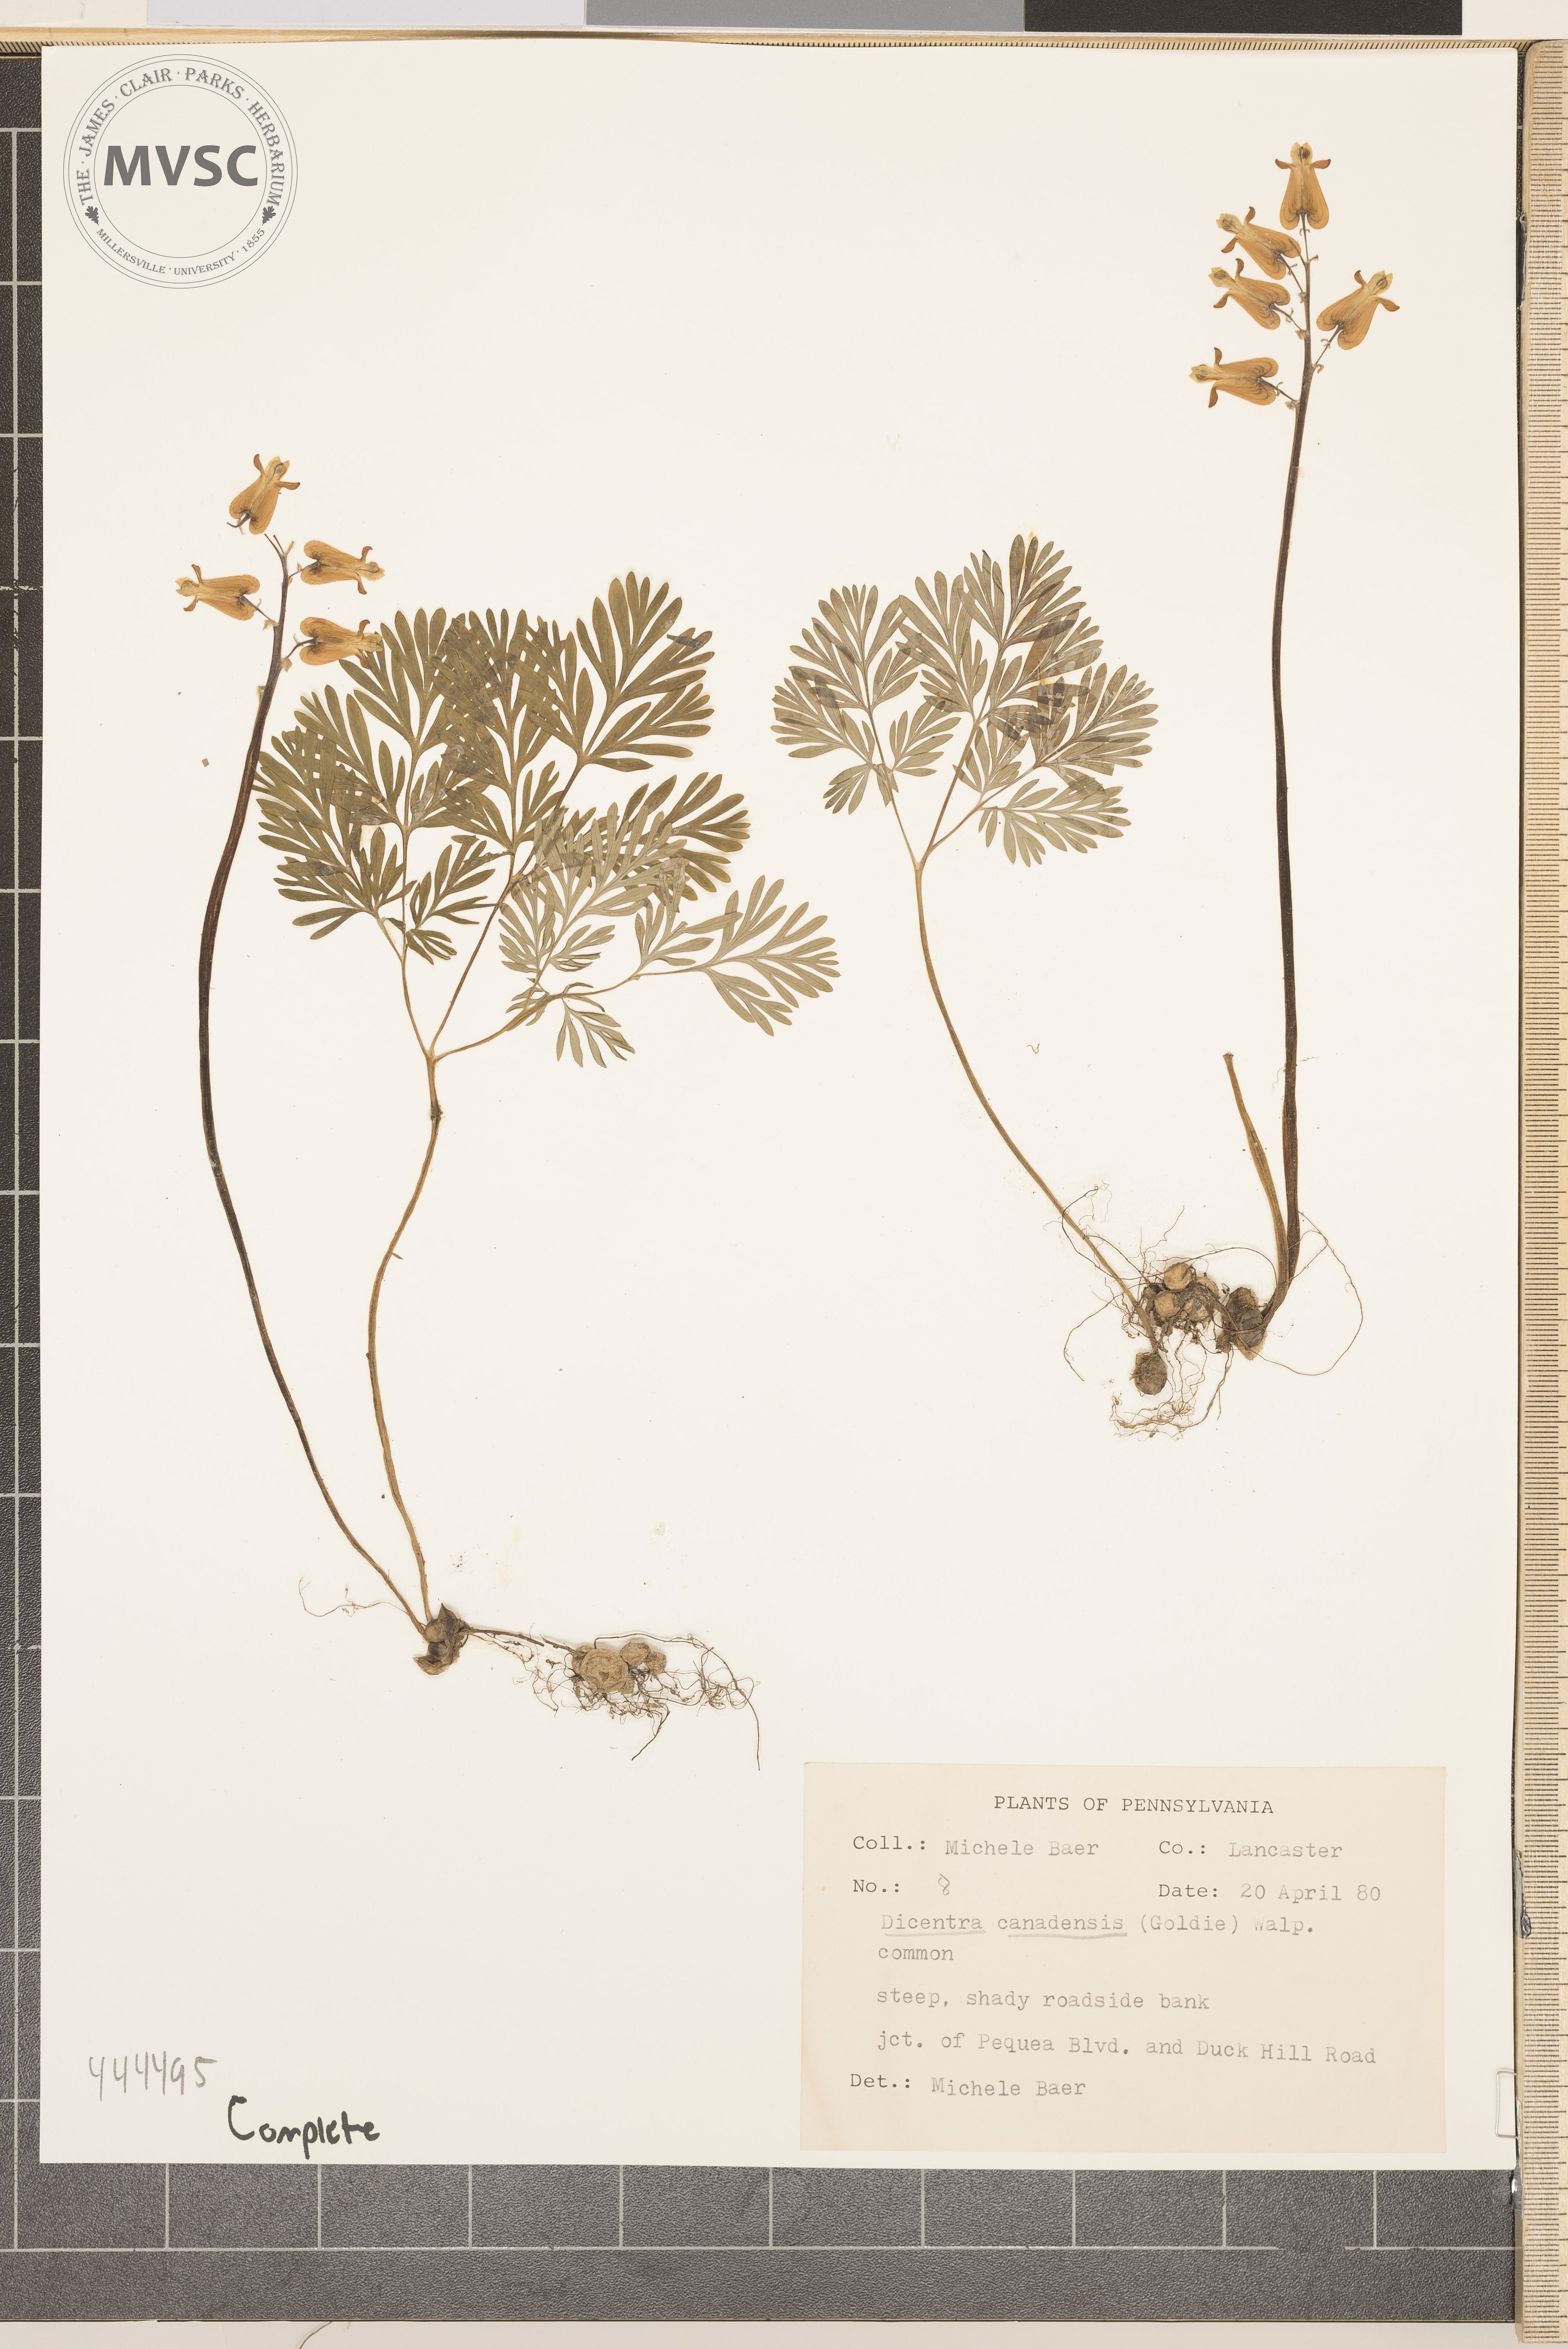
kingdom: Plantae
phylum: Tracheophyta
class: Magnoliopsida
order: Ranunculales
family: Papaveraceae
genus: Dicentra
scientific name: Dicentra canadensis
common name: Squirrel-corn
